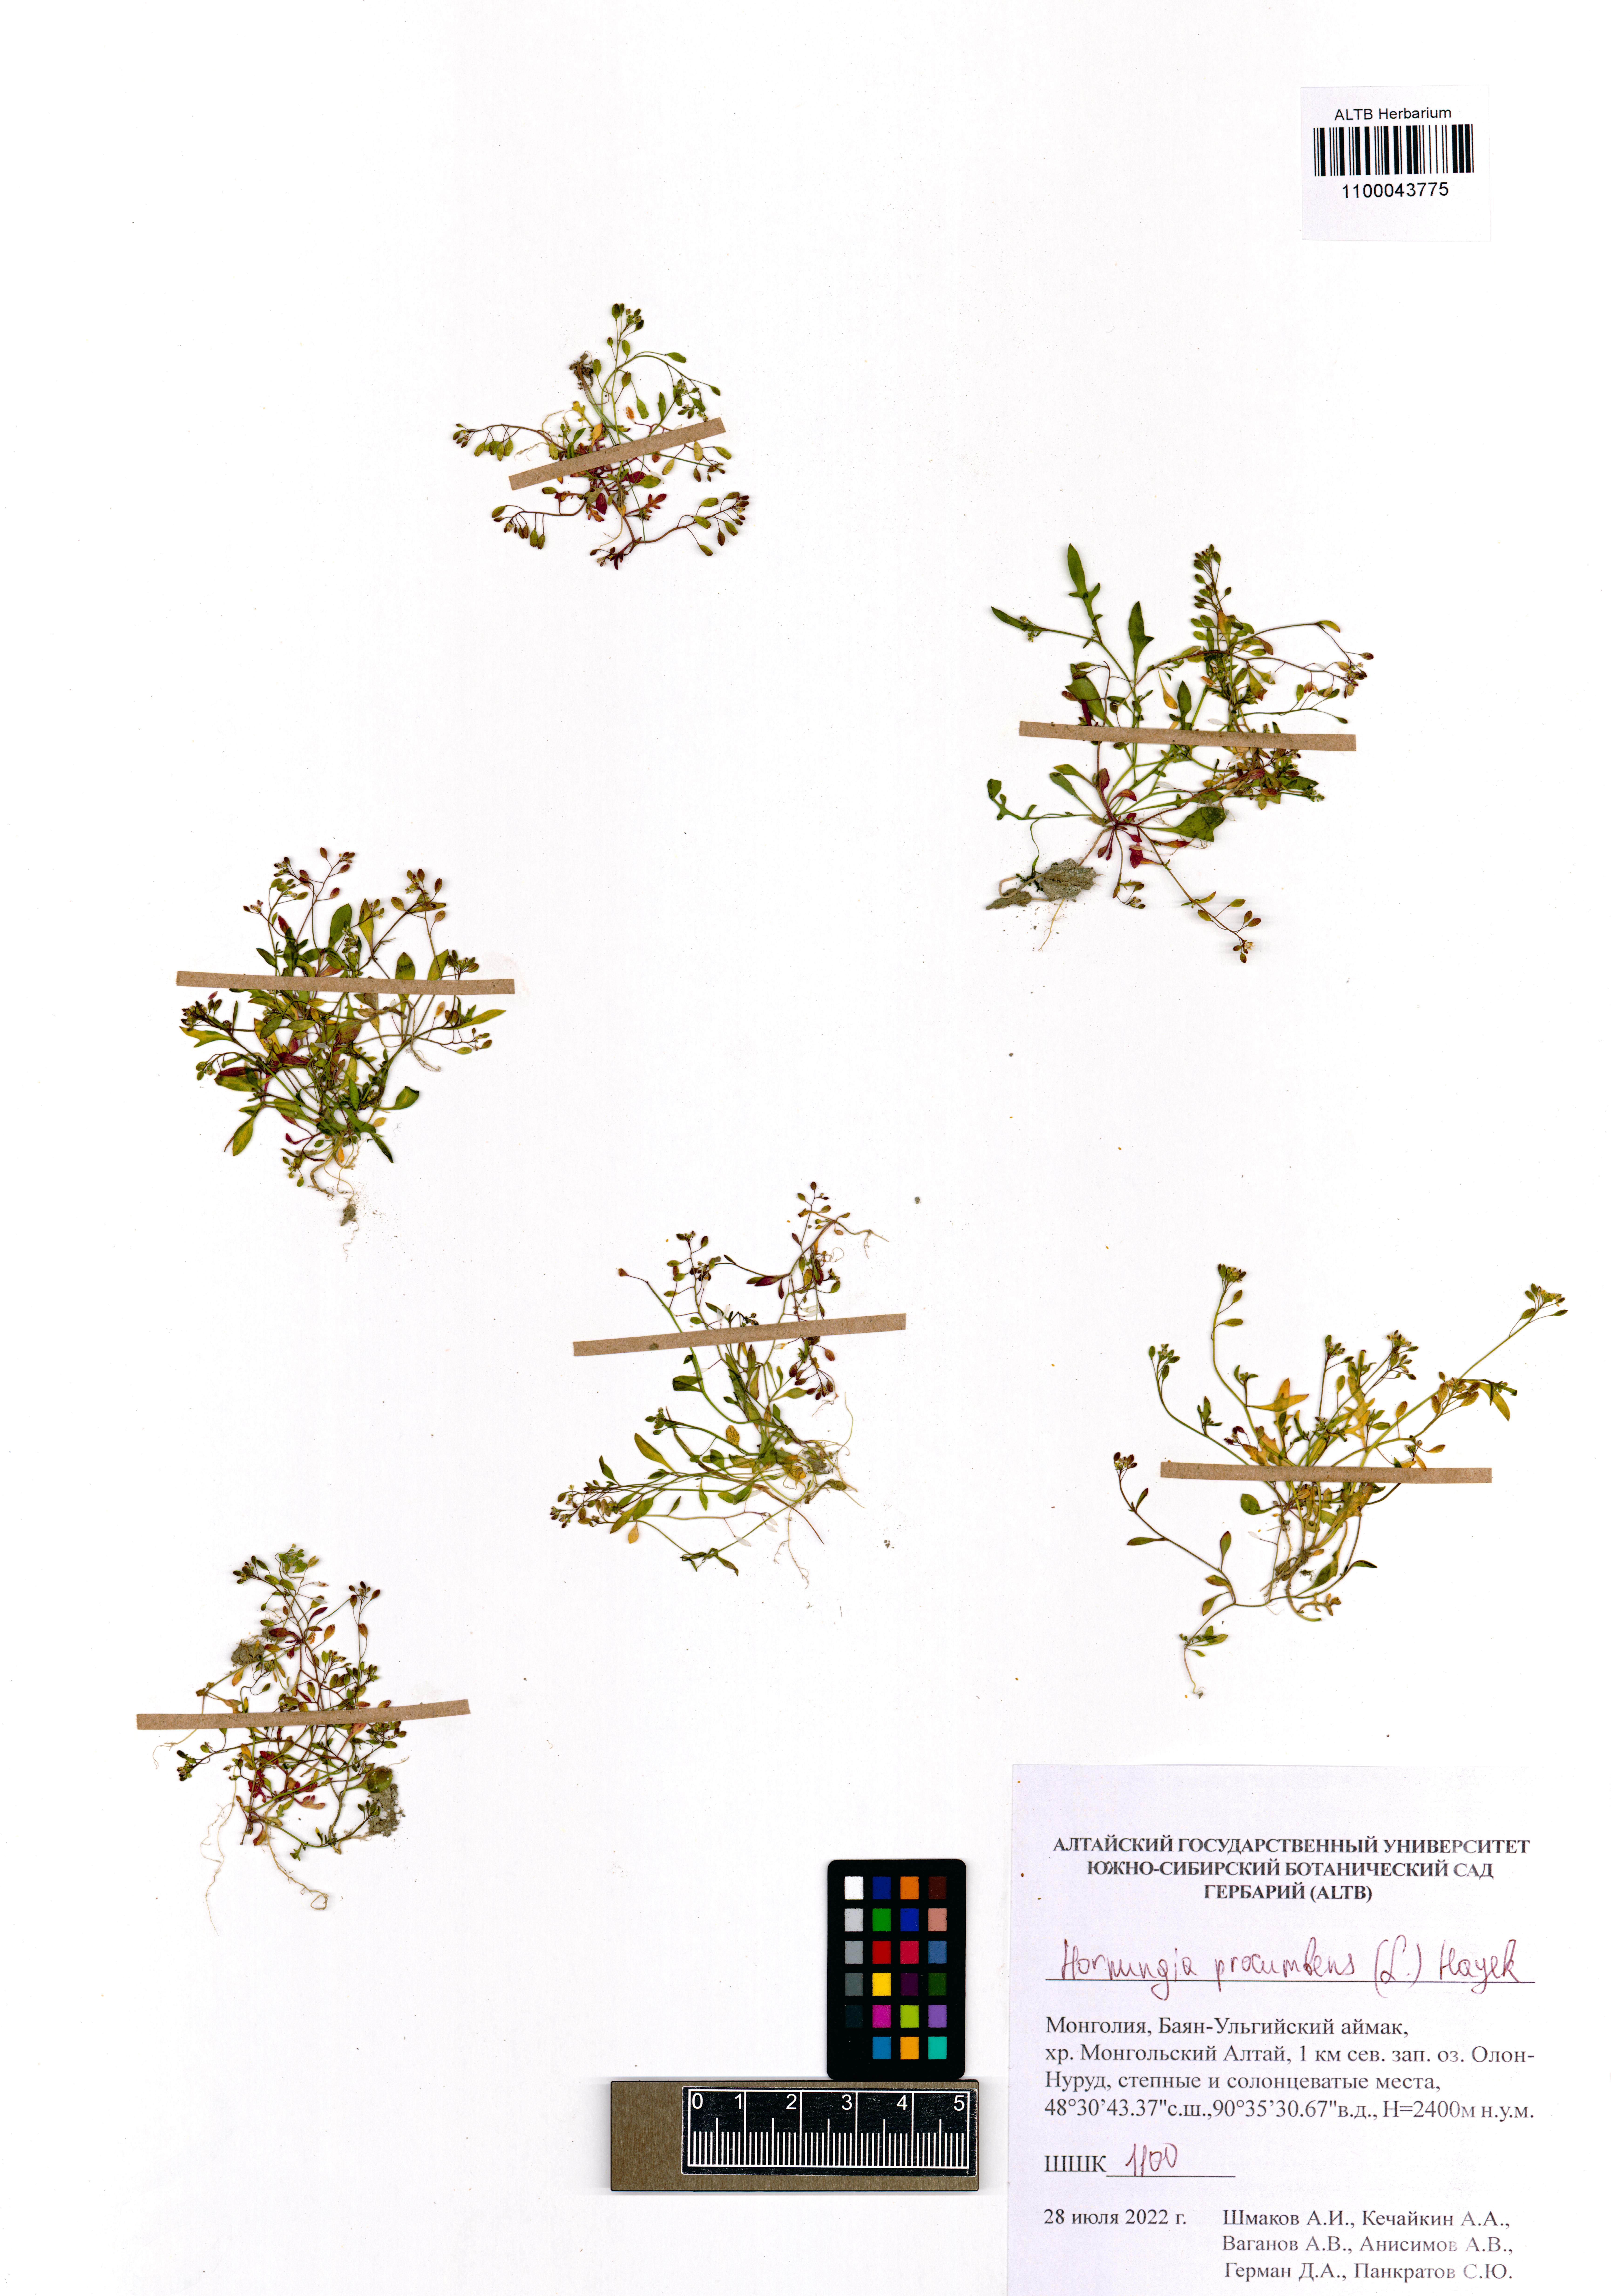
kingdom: Plantae
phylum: Tracheophyta
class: Magnoliopsida
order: Brassicales
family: Brassicaceae
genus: Hornungia
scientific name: Hornungia procumbens
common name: Oval purse
